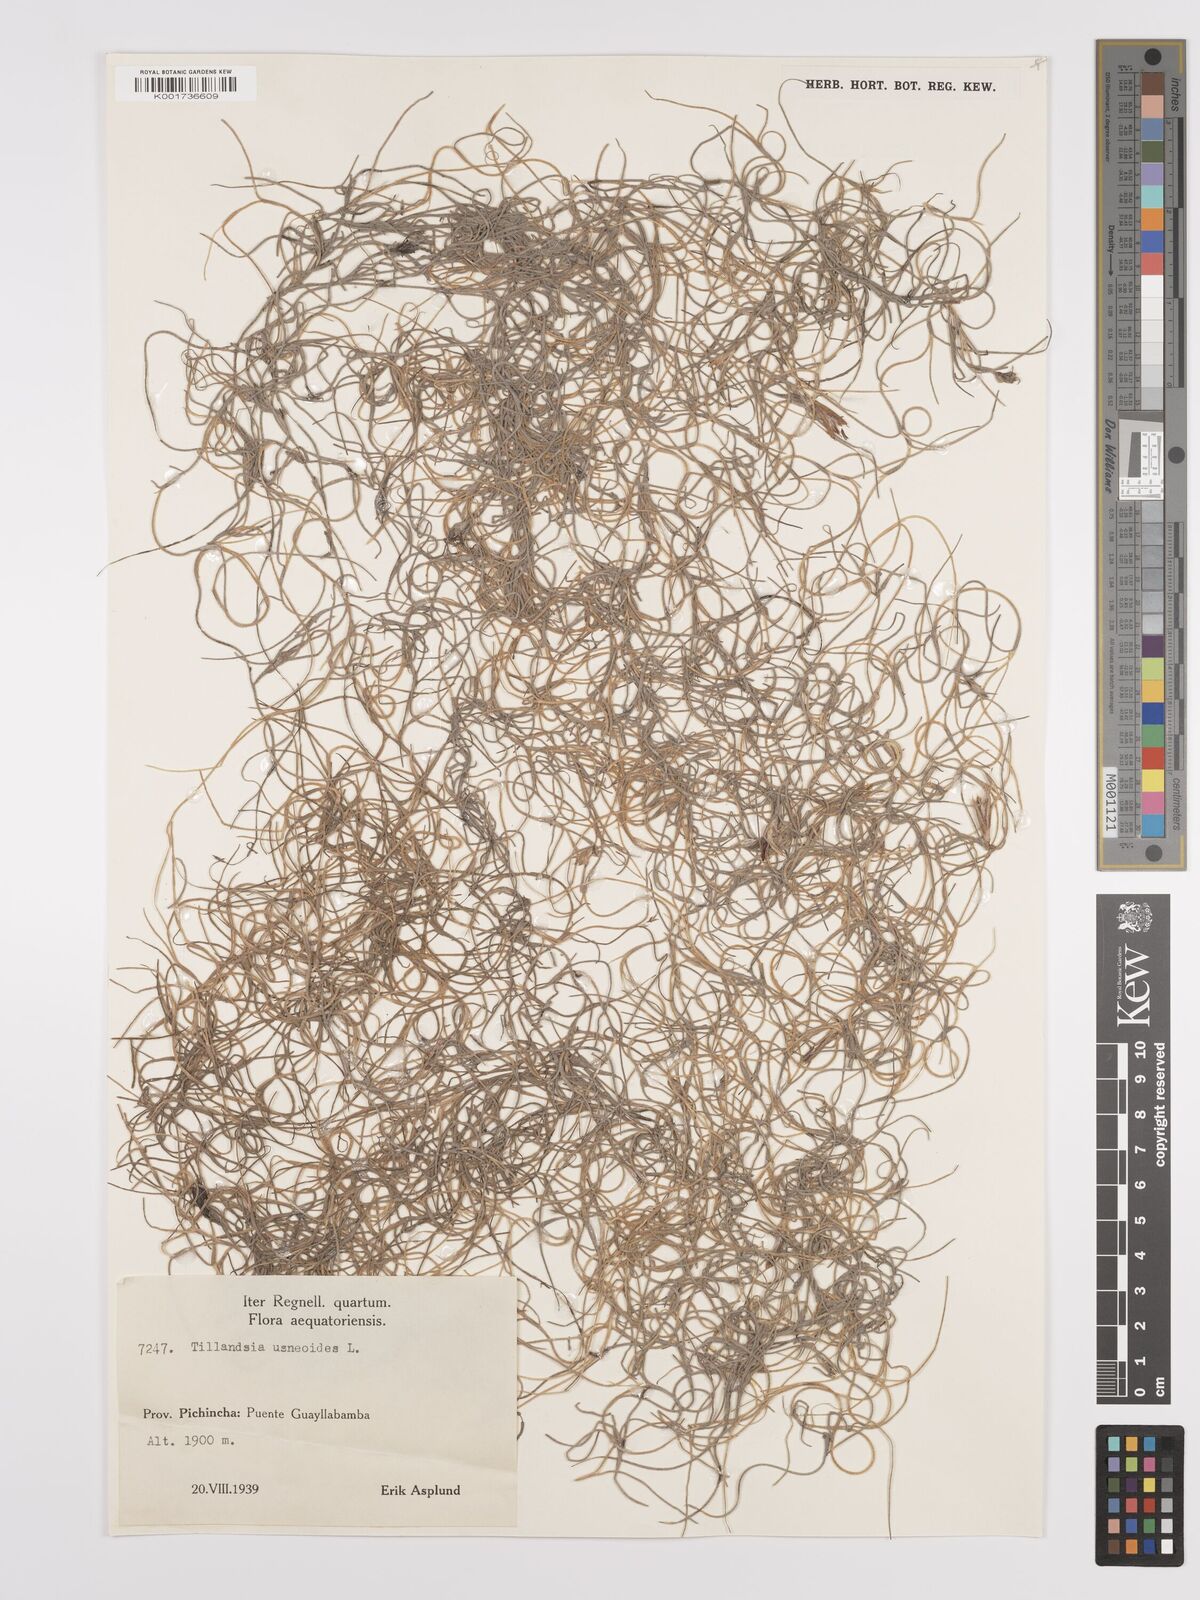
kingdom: Plantae
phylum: Tracheophyta
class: Liliopsida
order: Poales
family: Bromeliaceae
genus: Tillandsia
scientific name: Tillandsia usneoides
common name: Spanish moss
